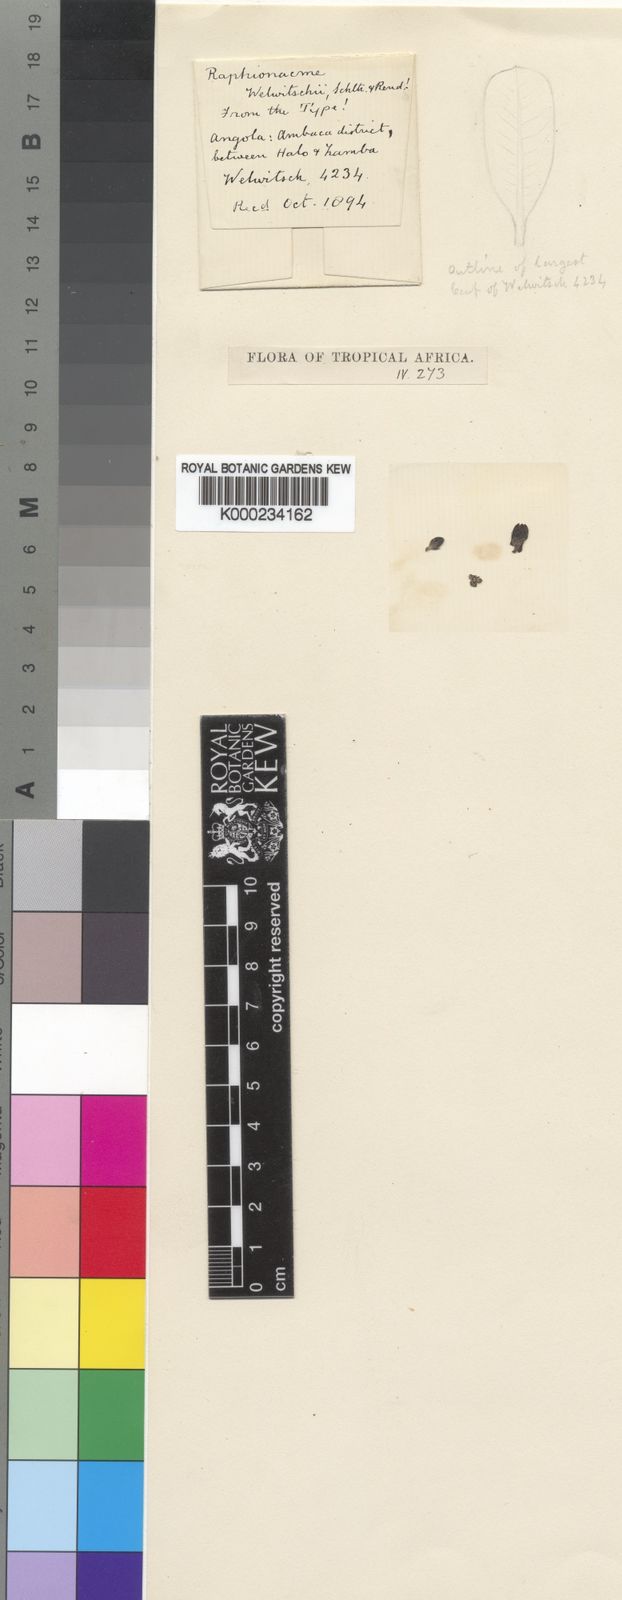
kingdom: Plantae
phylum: Tracheophyta
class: Magnoliopsida
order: Gentianales
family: Apocynaceae
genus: Raphionacme
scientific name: Raphionacme welwitschii
